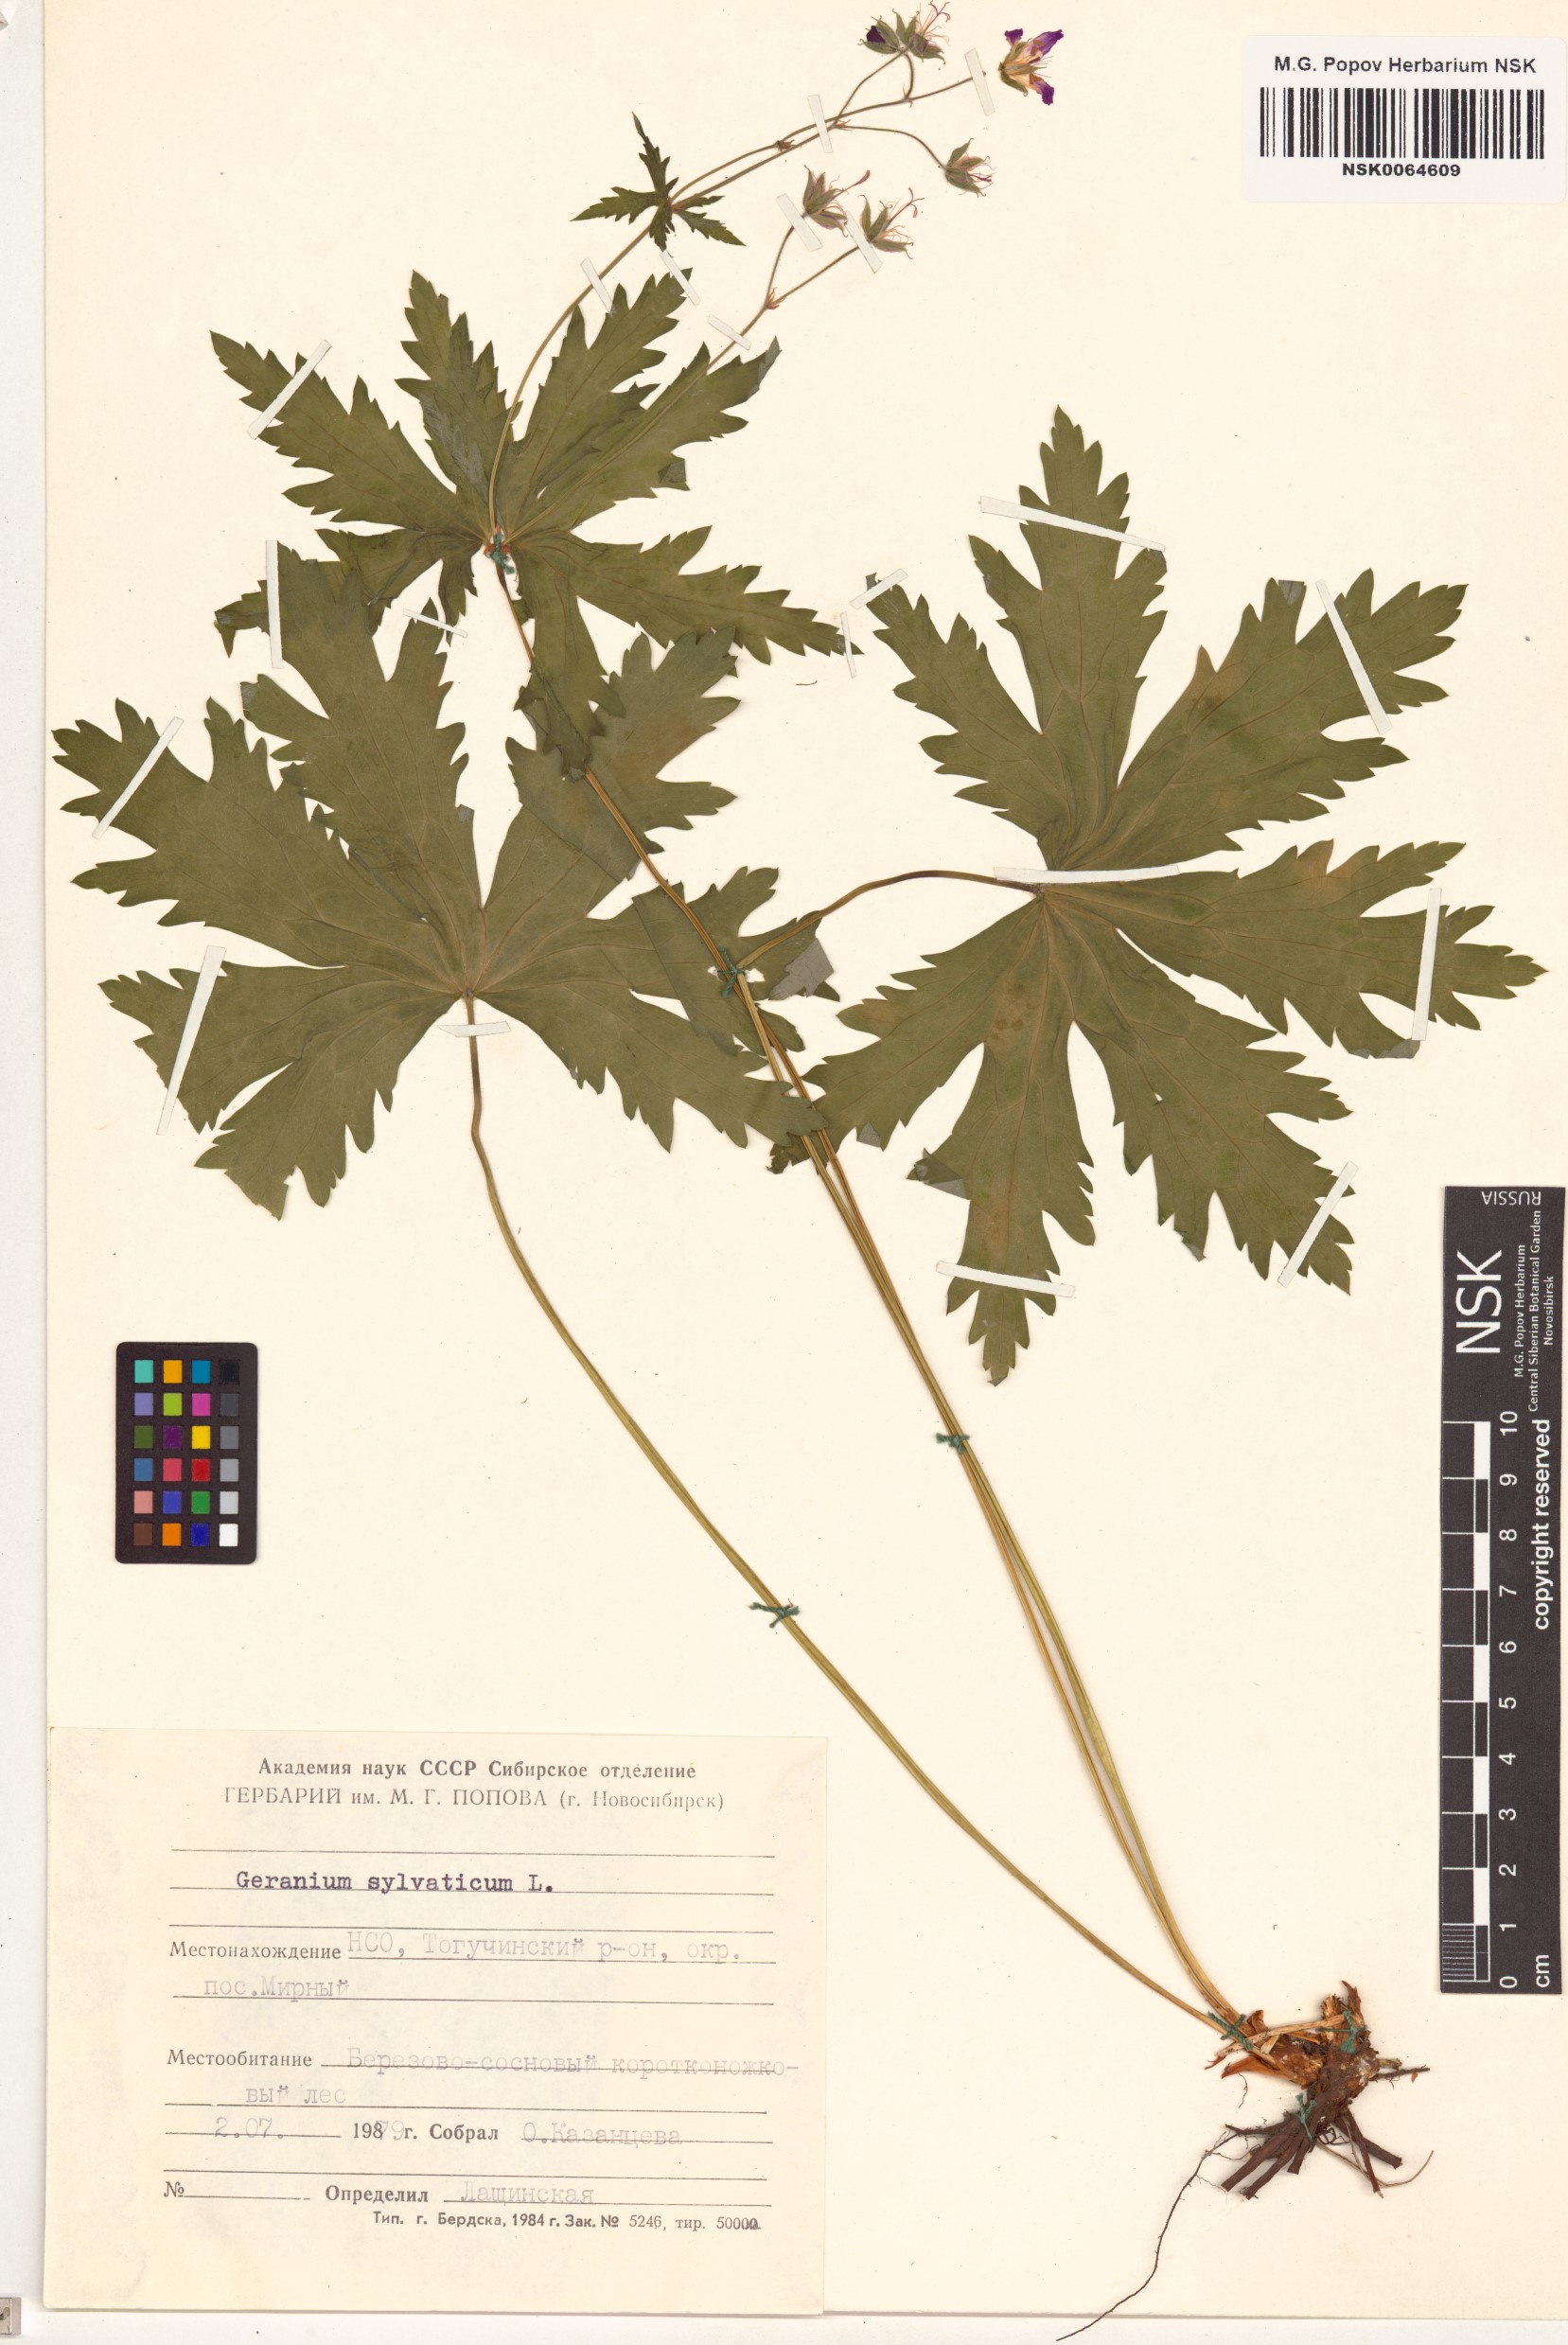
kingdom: Plantae
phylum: Tracheophyta
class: Magnoliopsida
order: Geraniales
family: Geraniaceae
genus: Geranium
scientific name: Geranium sylvaticum
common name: Wood crane's-bill
